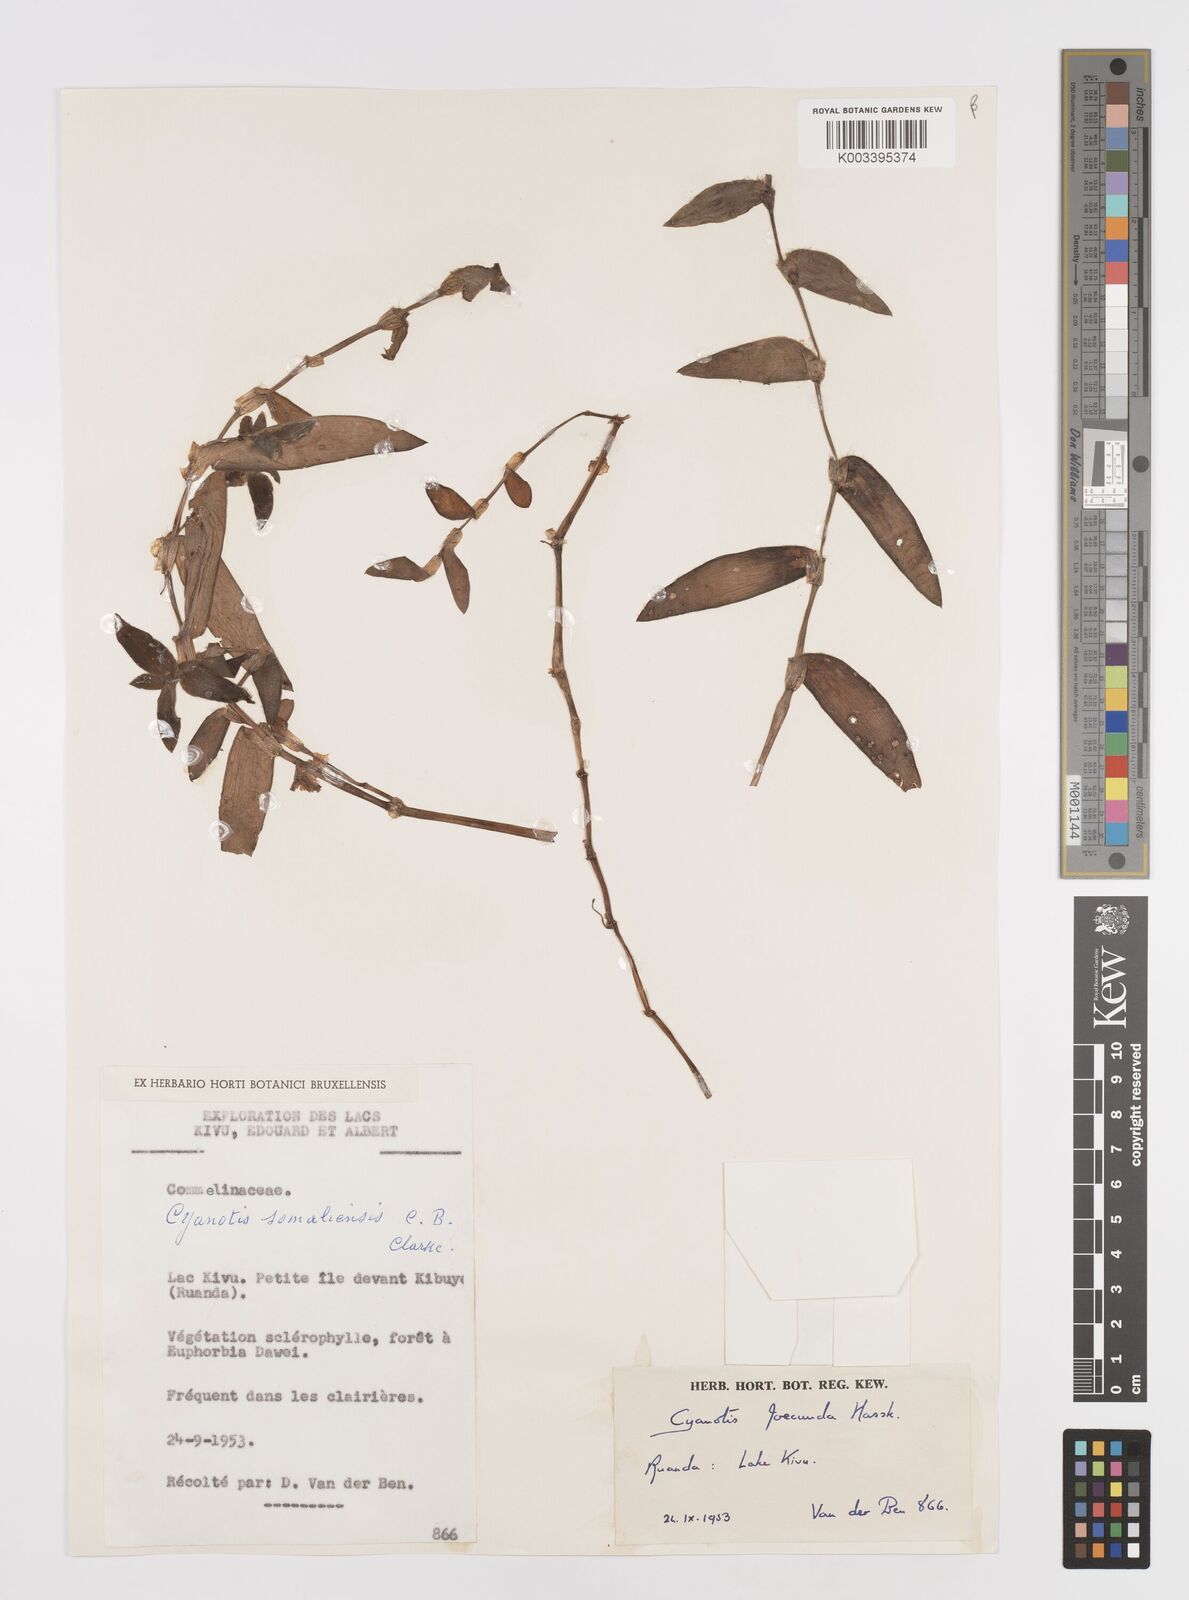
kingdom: Plantae
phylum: Tracheophyta
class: Liliopsida
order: Commelinales
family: Commelinaceae
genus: Cyanotis
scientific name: Cyanotis foecunda
